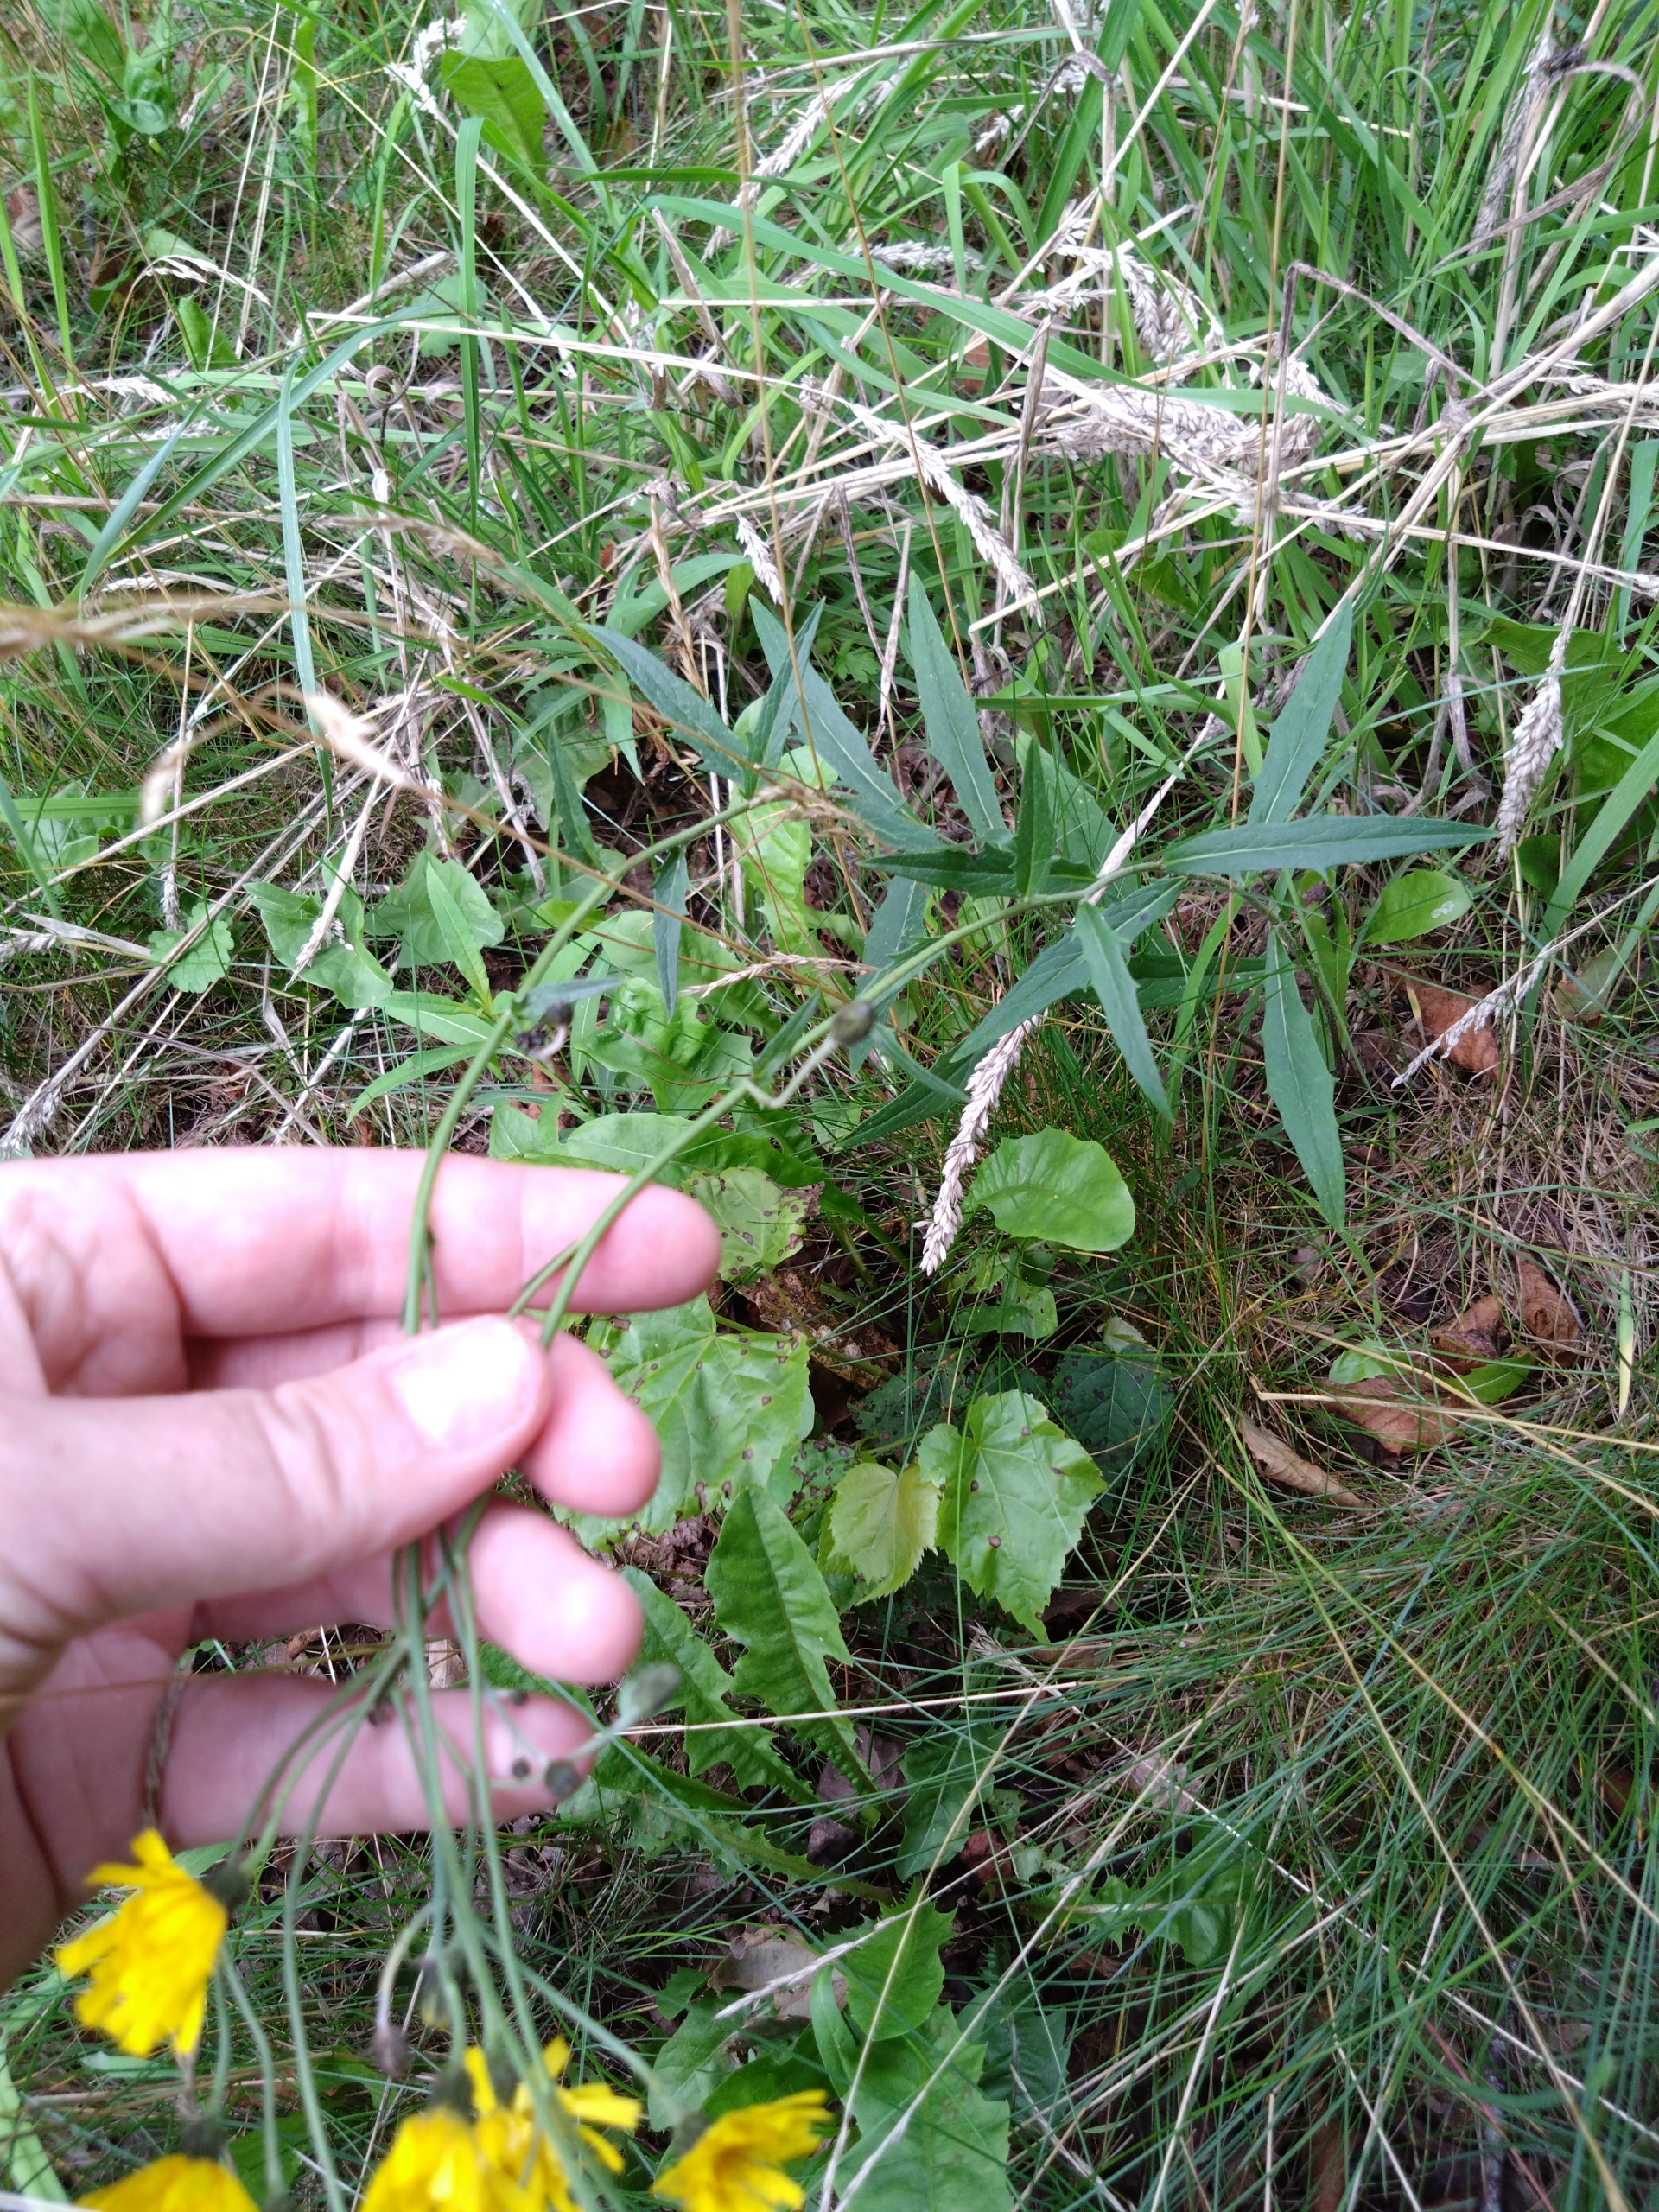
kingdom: Plantae
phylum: Tracheophyta
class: Magnoliopsida
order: Asterales
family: Asteraceae
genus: Hieracium
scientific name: Hieracium
